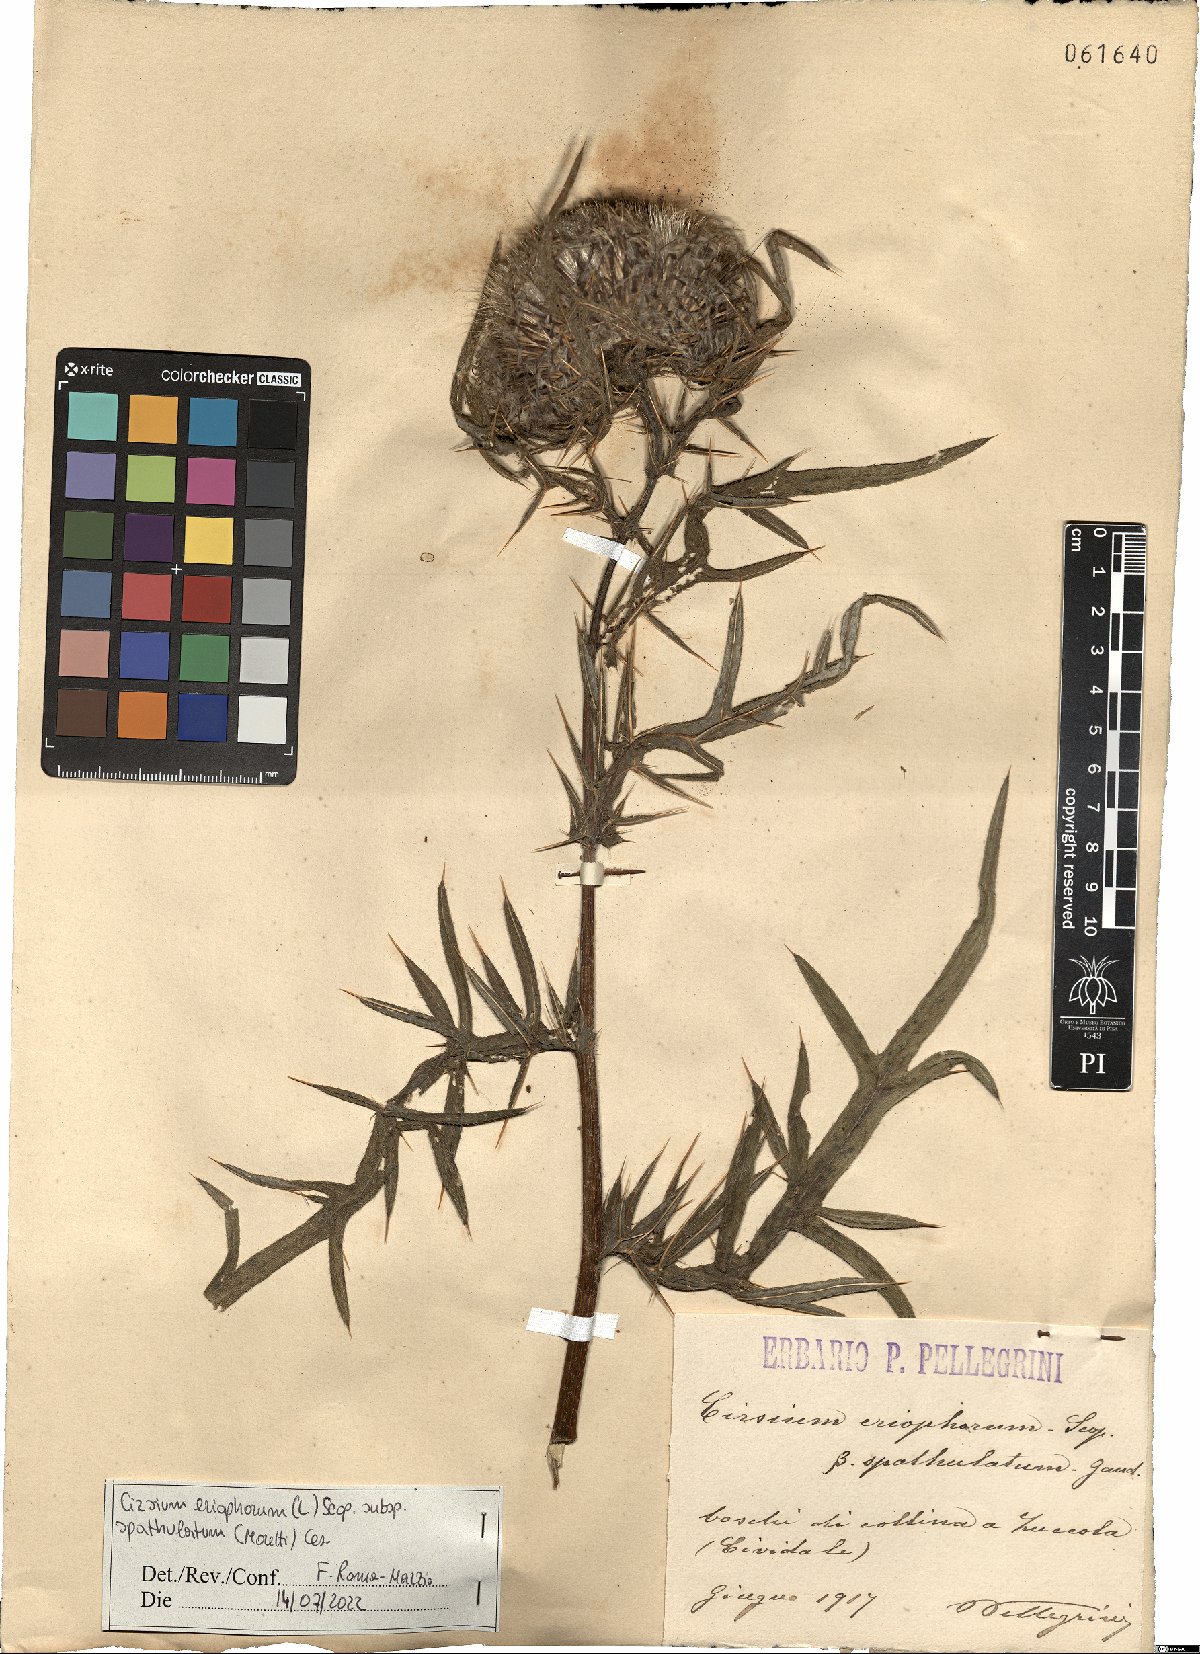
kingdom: Plantae
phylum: Tracheophyta
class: Magnoliopsida
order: Asterales
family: Asteraceae
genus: Lophiolepis
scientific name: Lophiolepis spathulata
